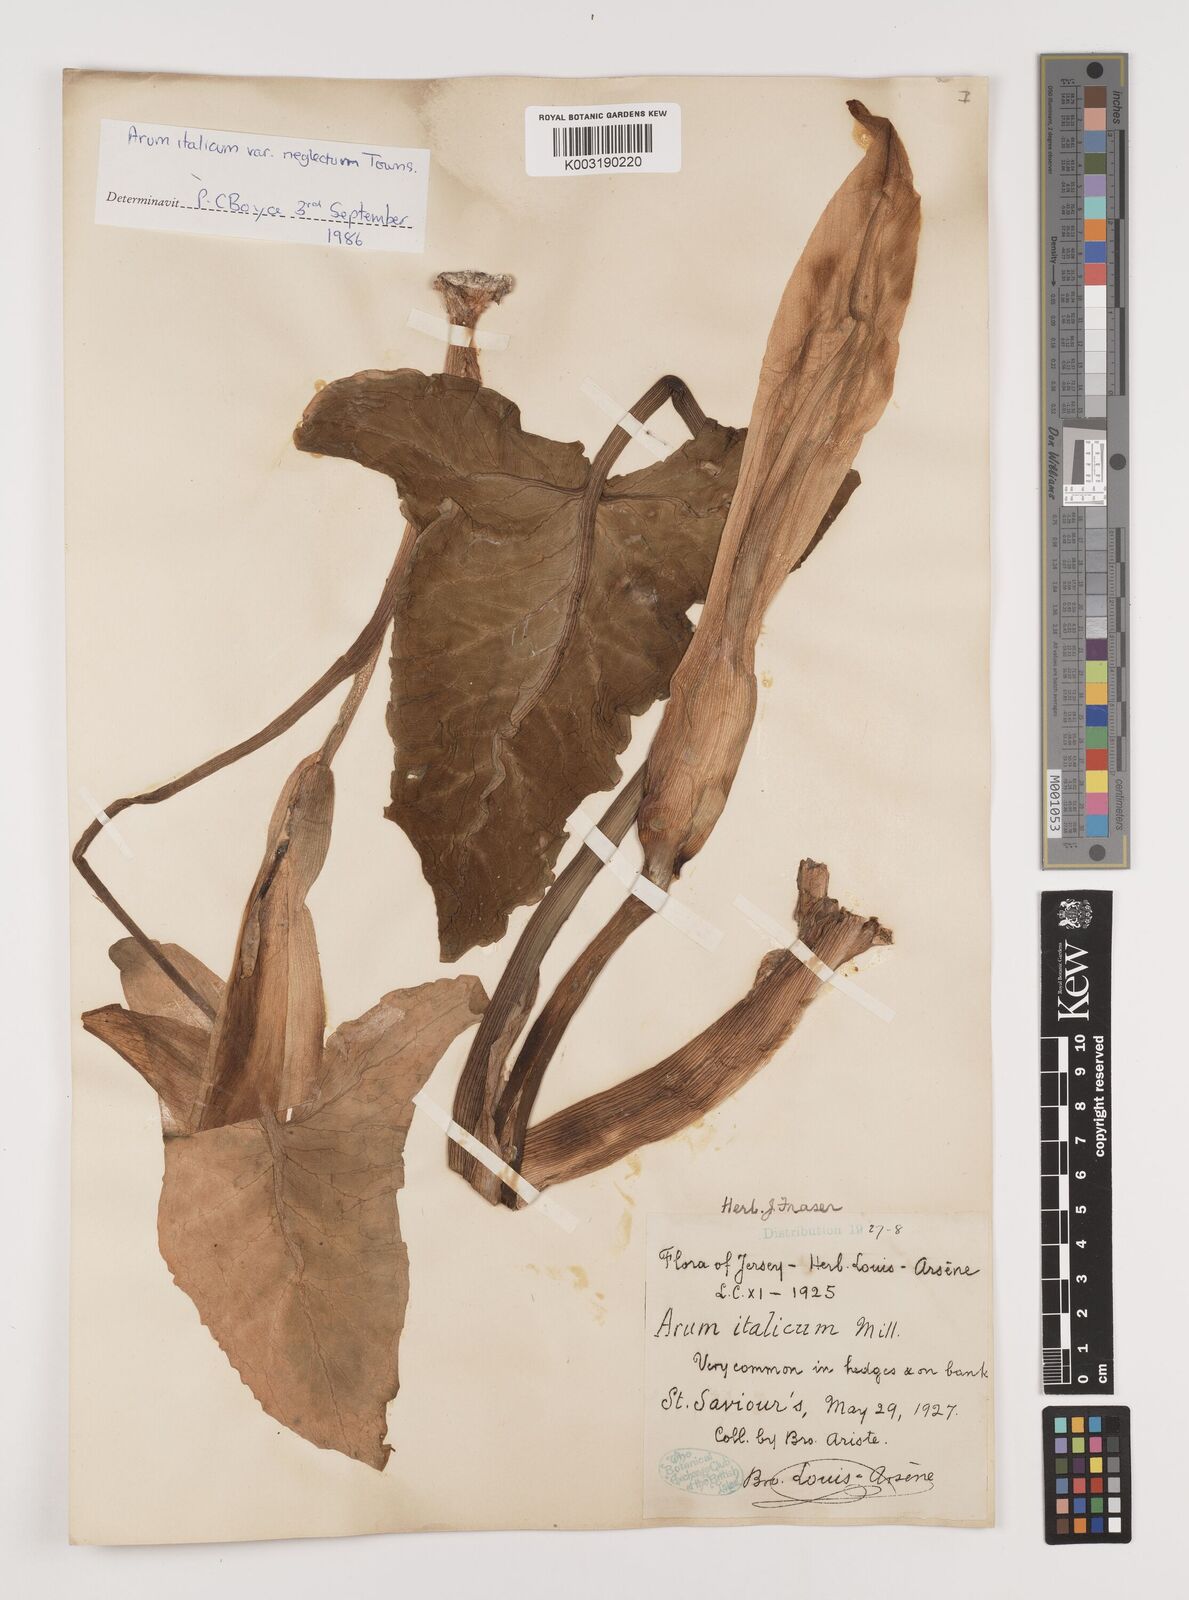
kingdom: Plantae
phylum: Tracheophyta
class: Liliopsida
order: Alismatales
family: Araceae
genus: Arum
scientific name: Arum italicum
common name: Italian lords-and-ladies
